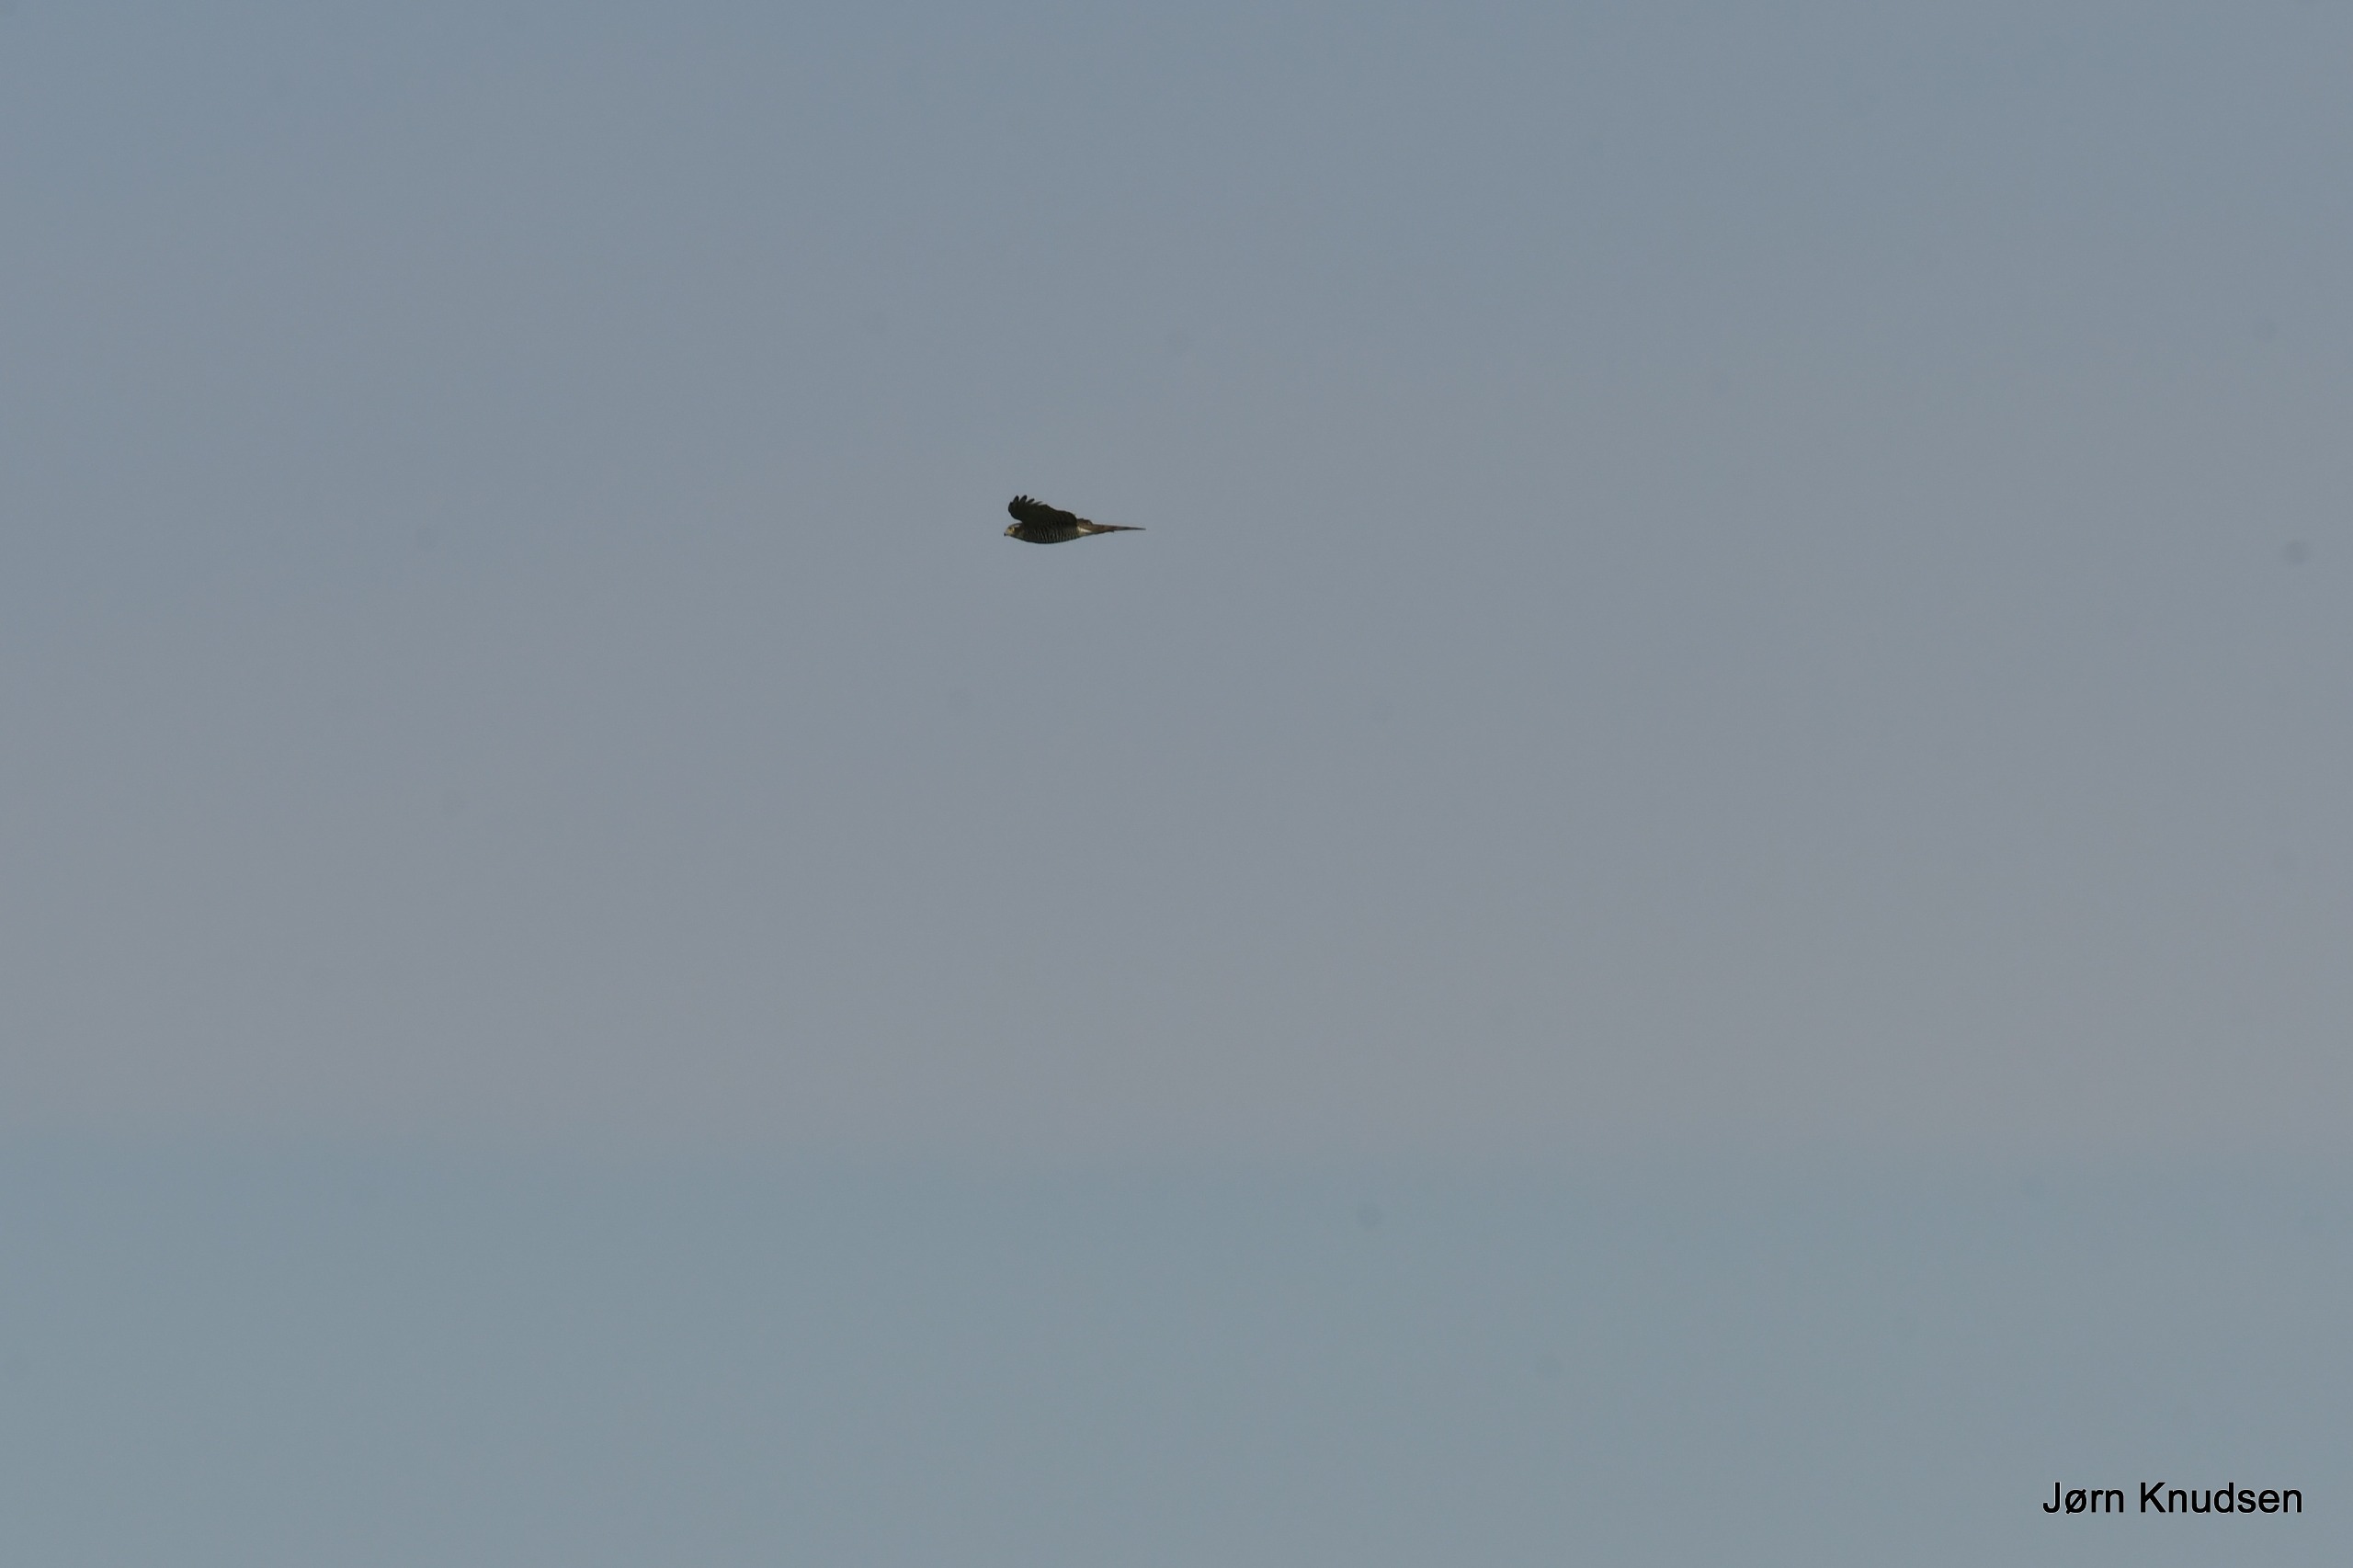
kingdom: Animalia
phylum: Chordata
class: Aves
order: Accipitriformes
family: Accipitridae
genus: Accipiter
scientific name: Accipiter nisus
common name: Spurvehøg
